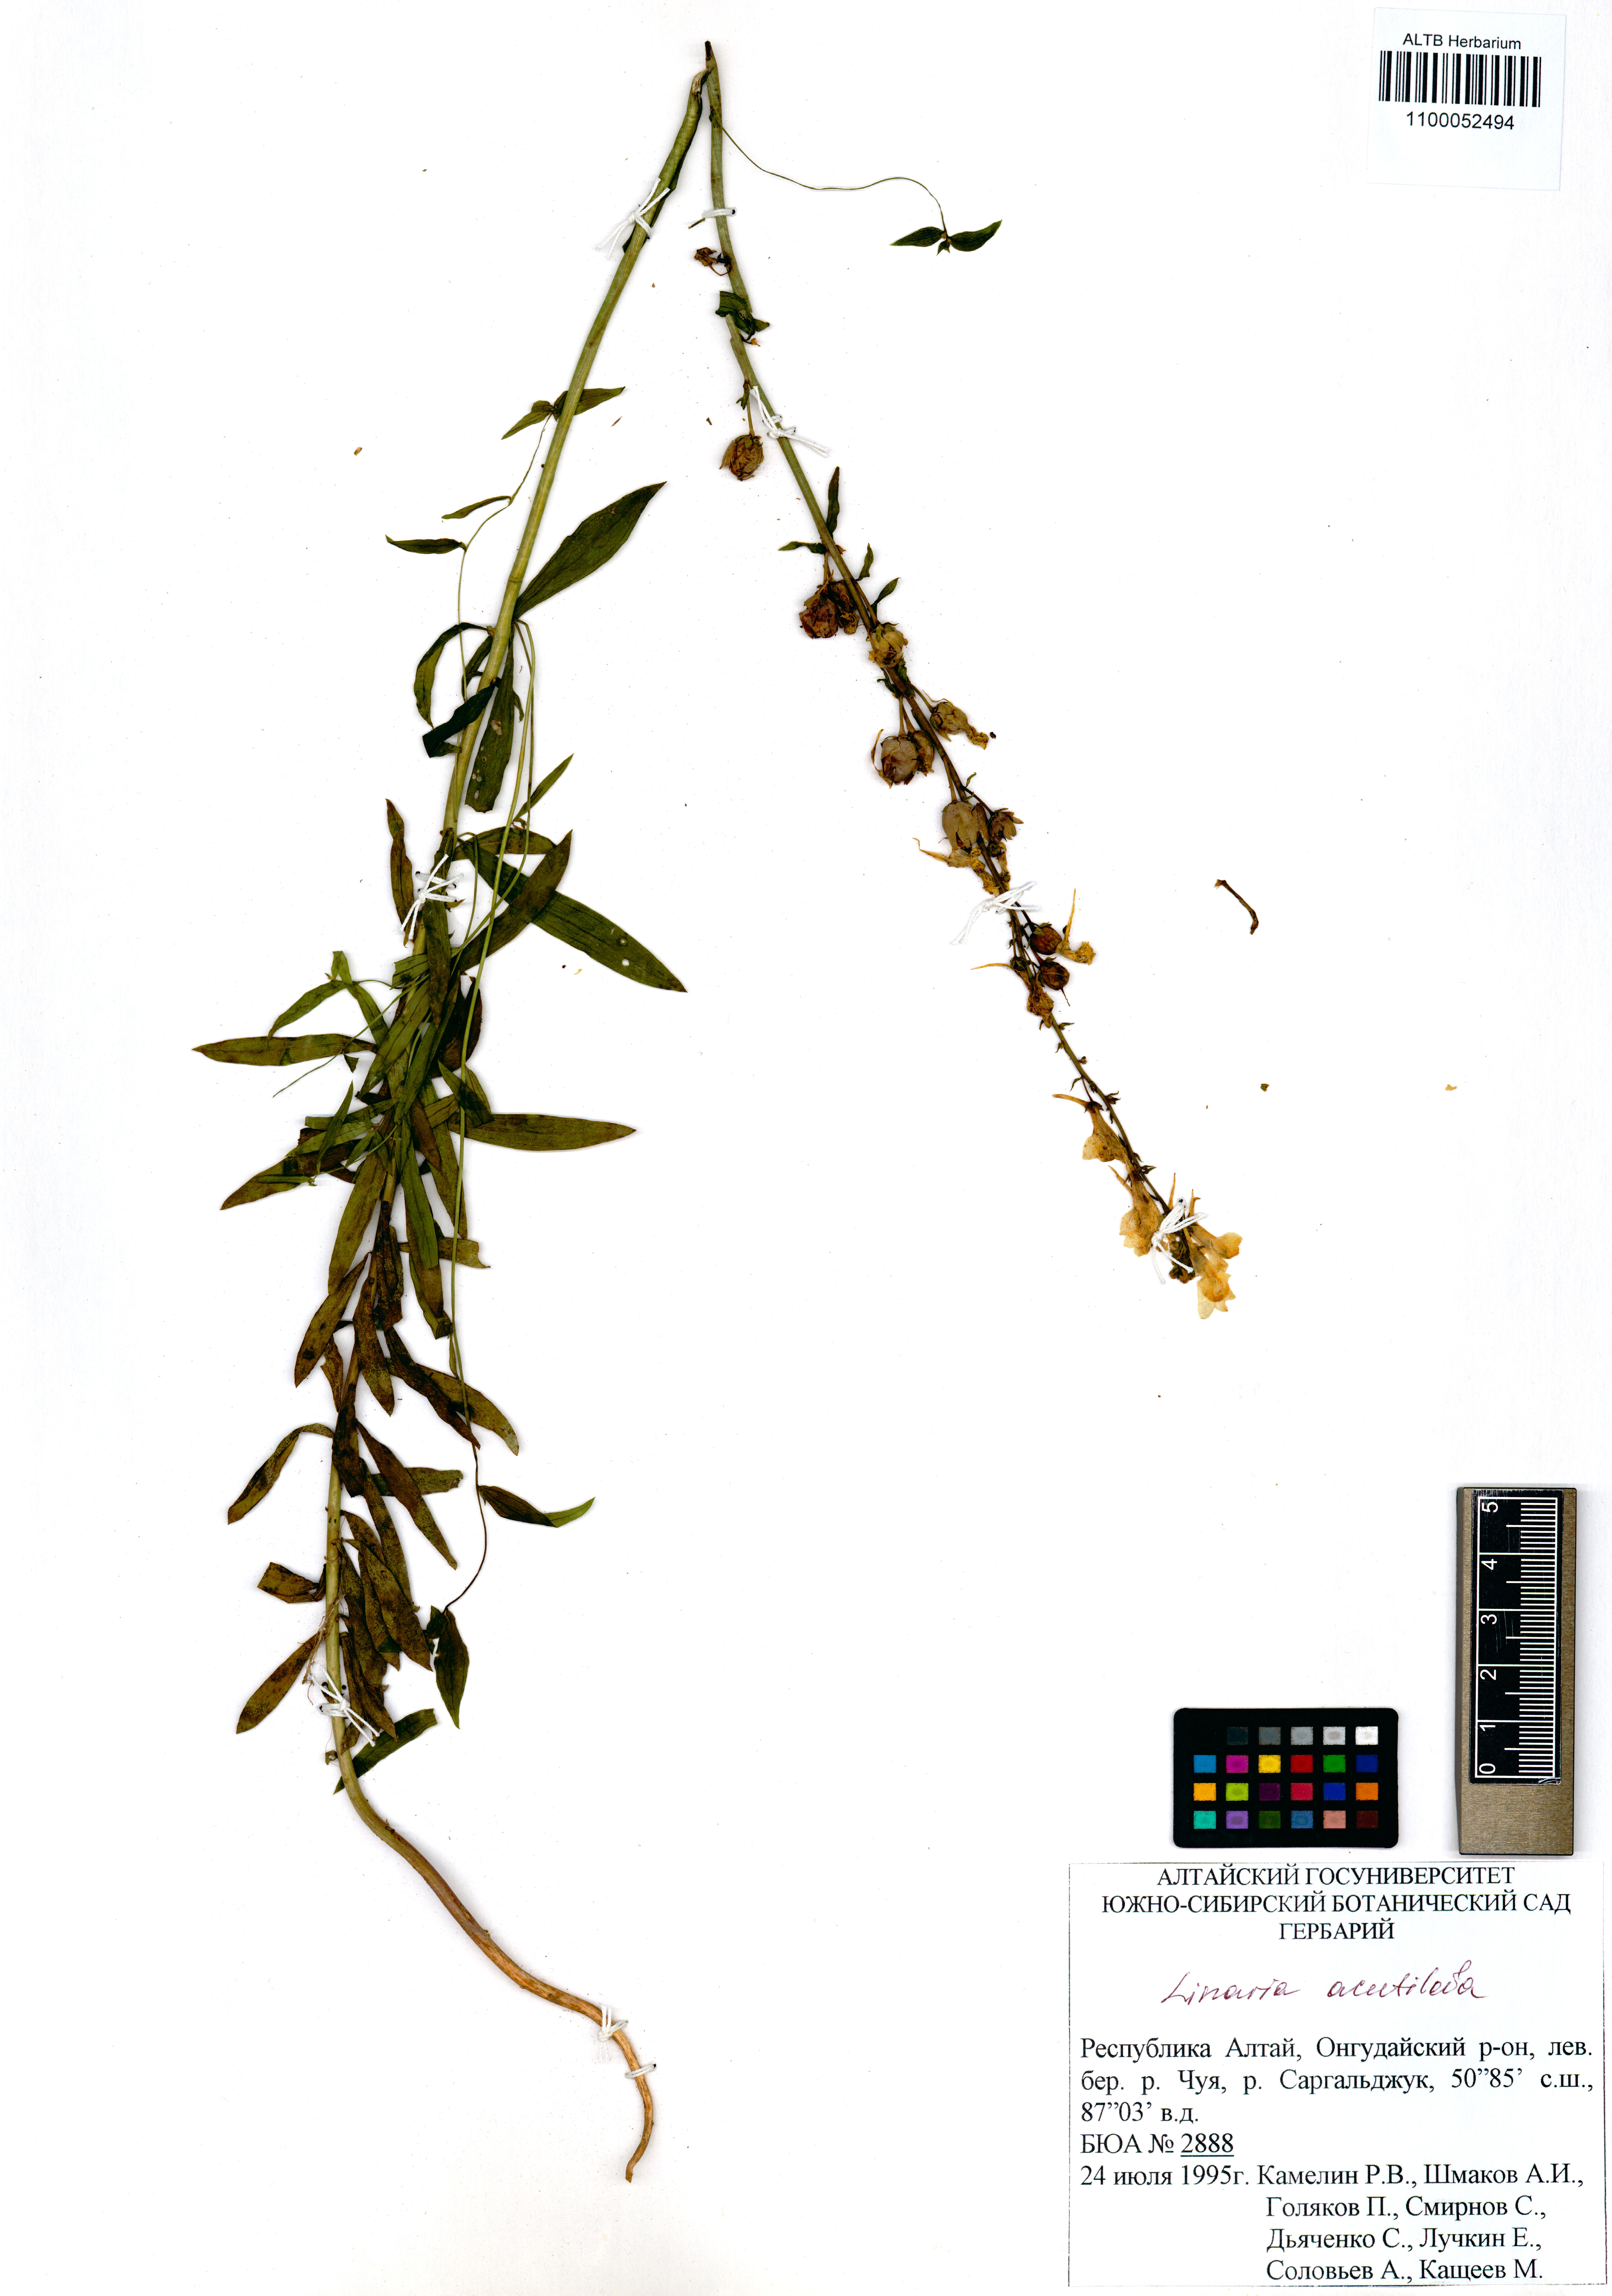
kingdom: Plantae
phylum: Tracheophyta
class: Magnoliopsida
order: Lamiales
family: Plantaginaceae
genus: Linaria
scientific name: Linaria acutiloba
